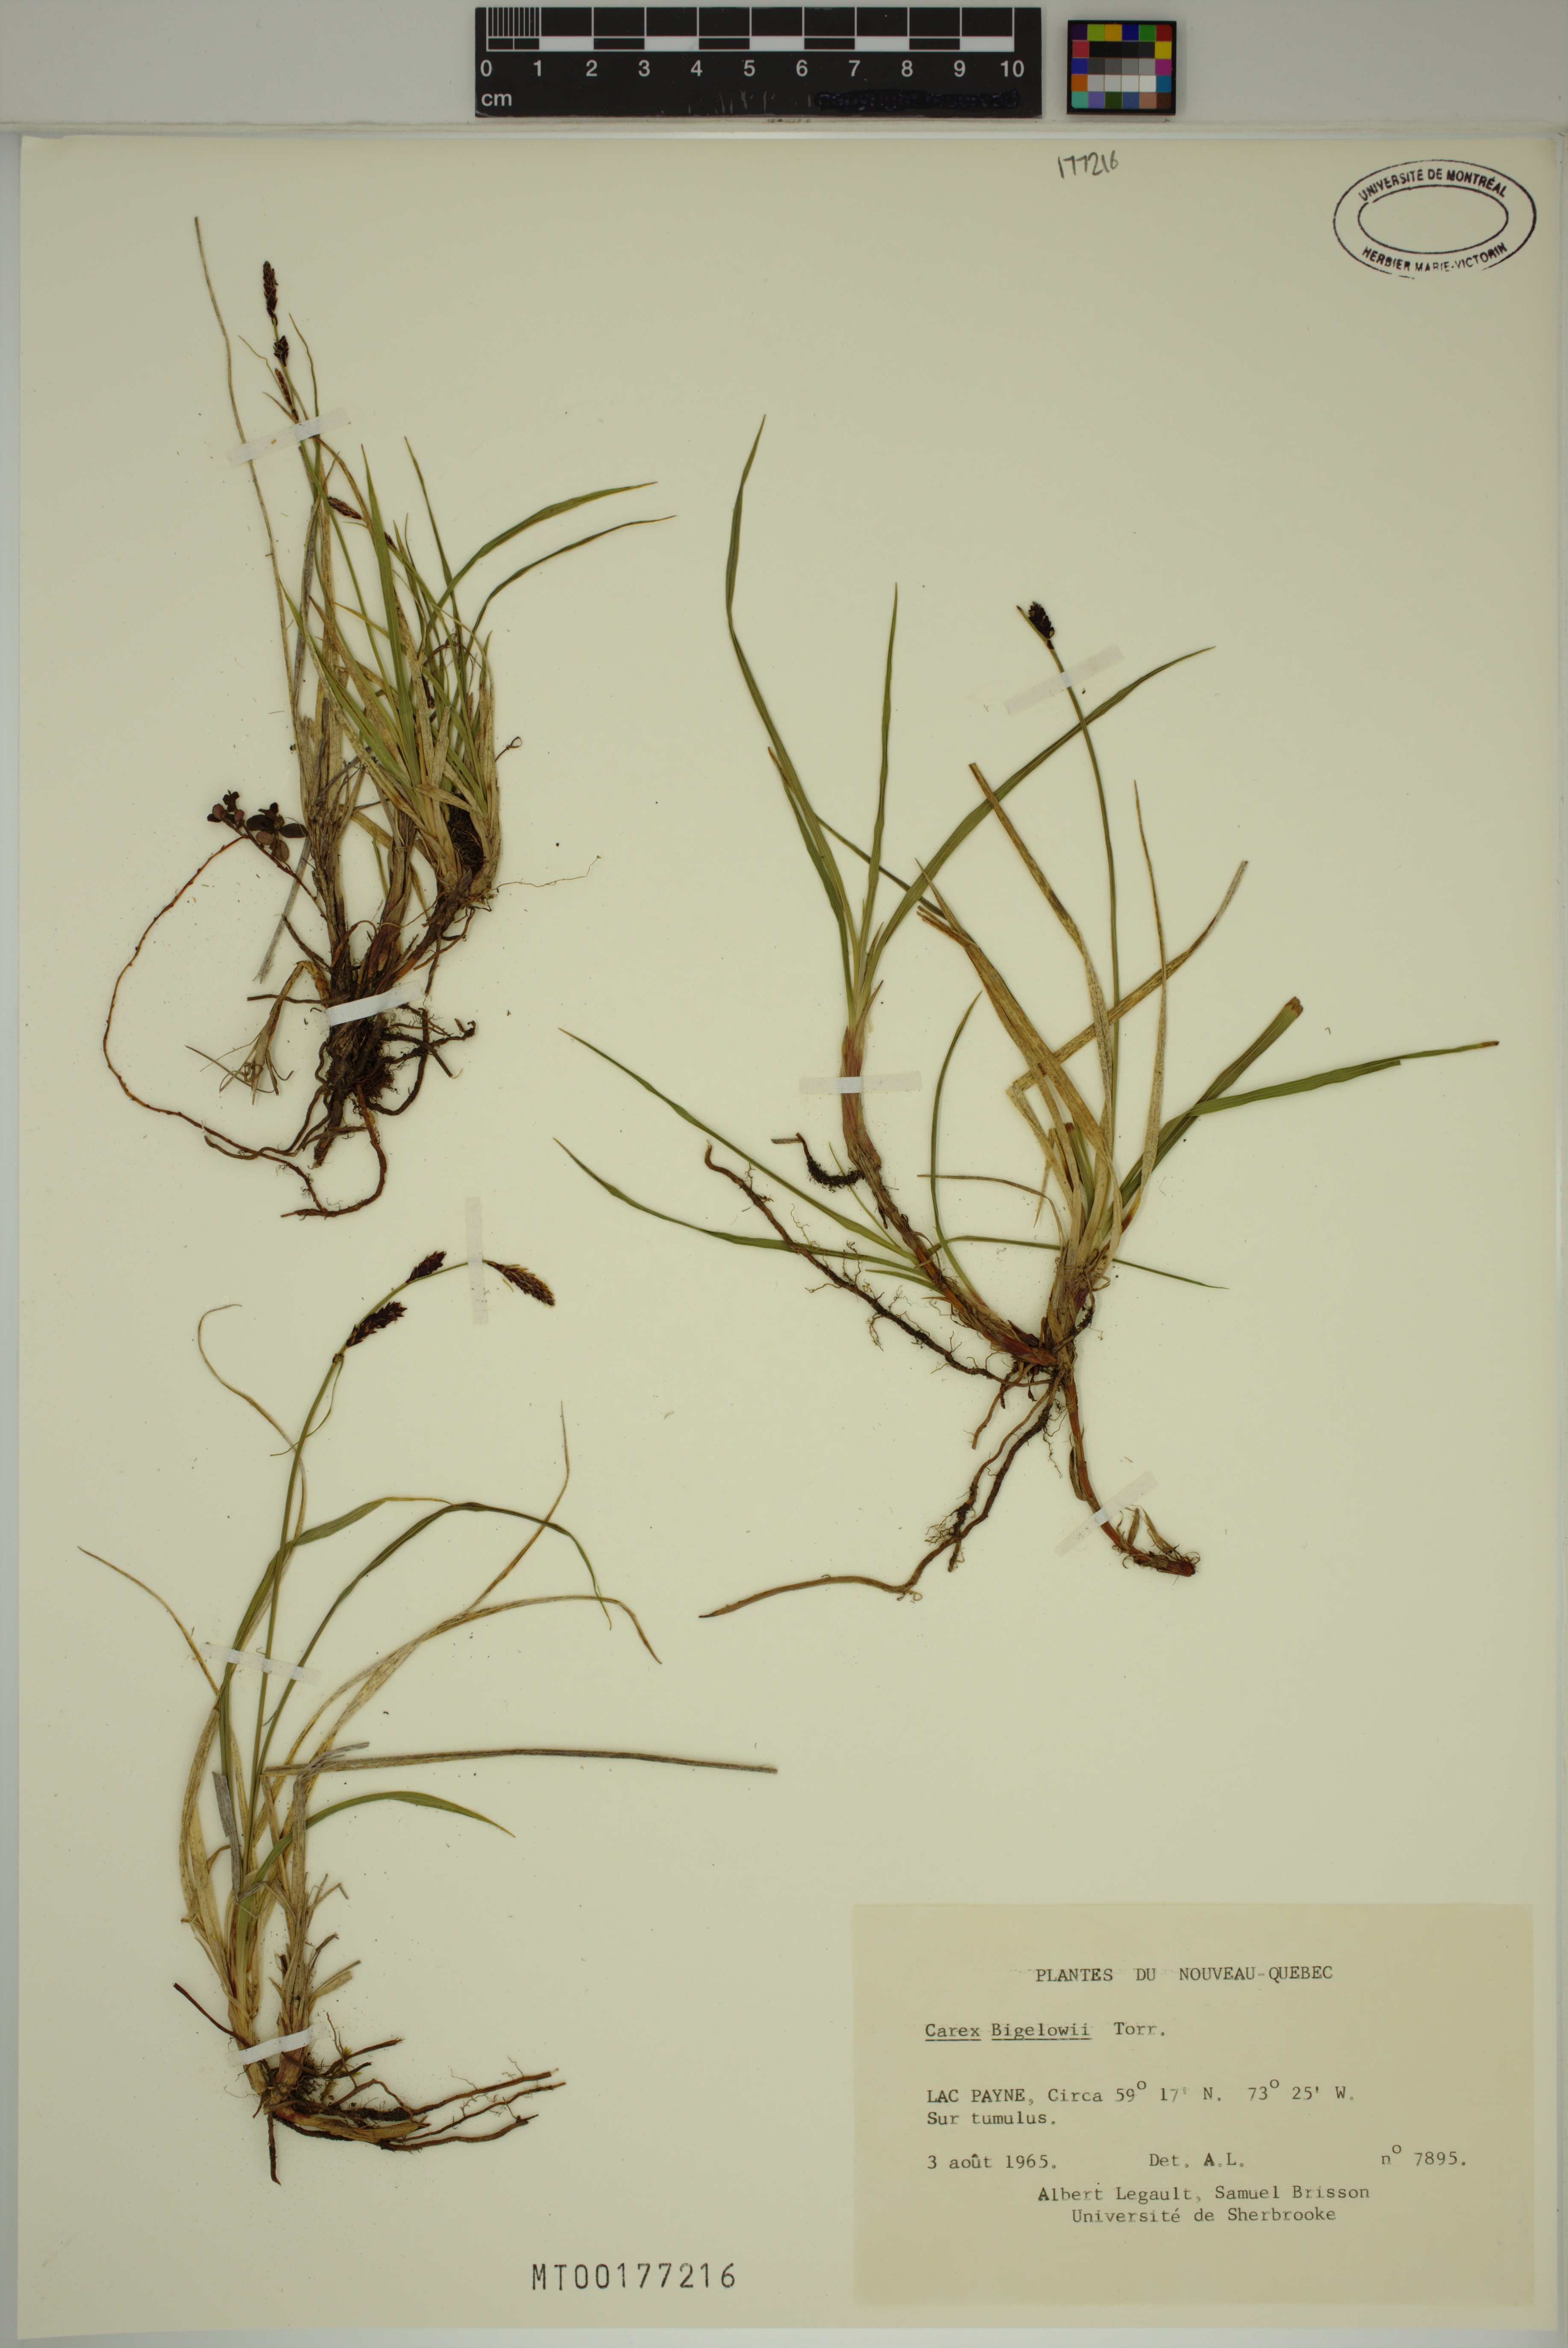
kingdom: Plantae
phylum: Tracheophyta
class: Liliopsida
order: Poales
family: Cyperaceae
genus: Carex
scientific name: Carex bigelowii
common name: Stiff sedge
